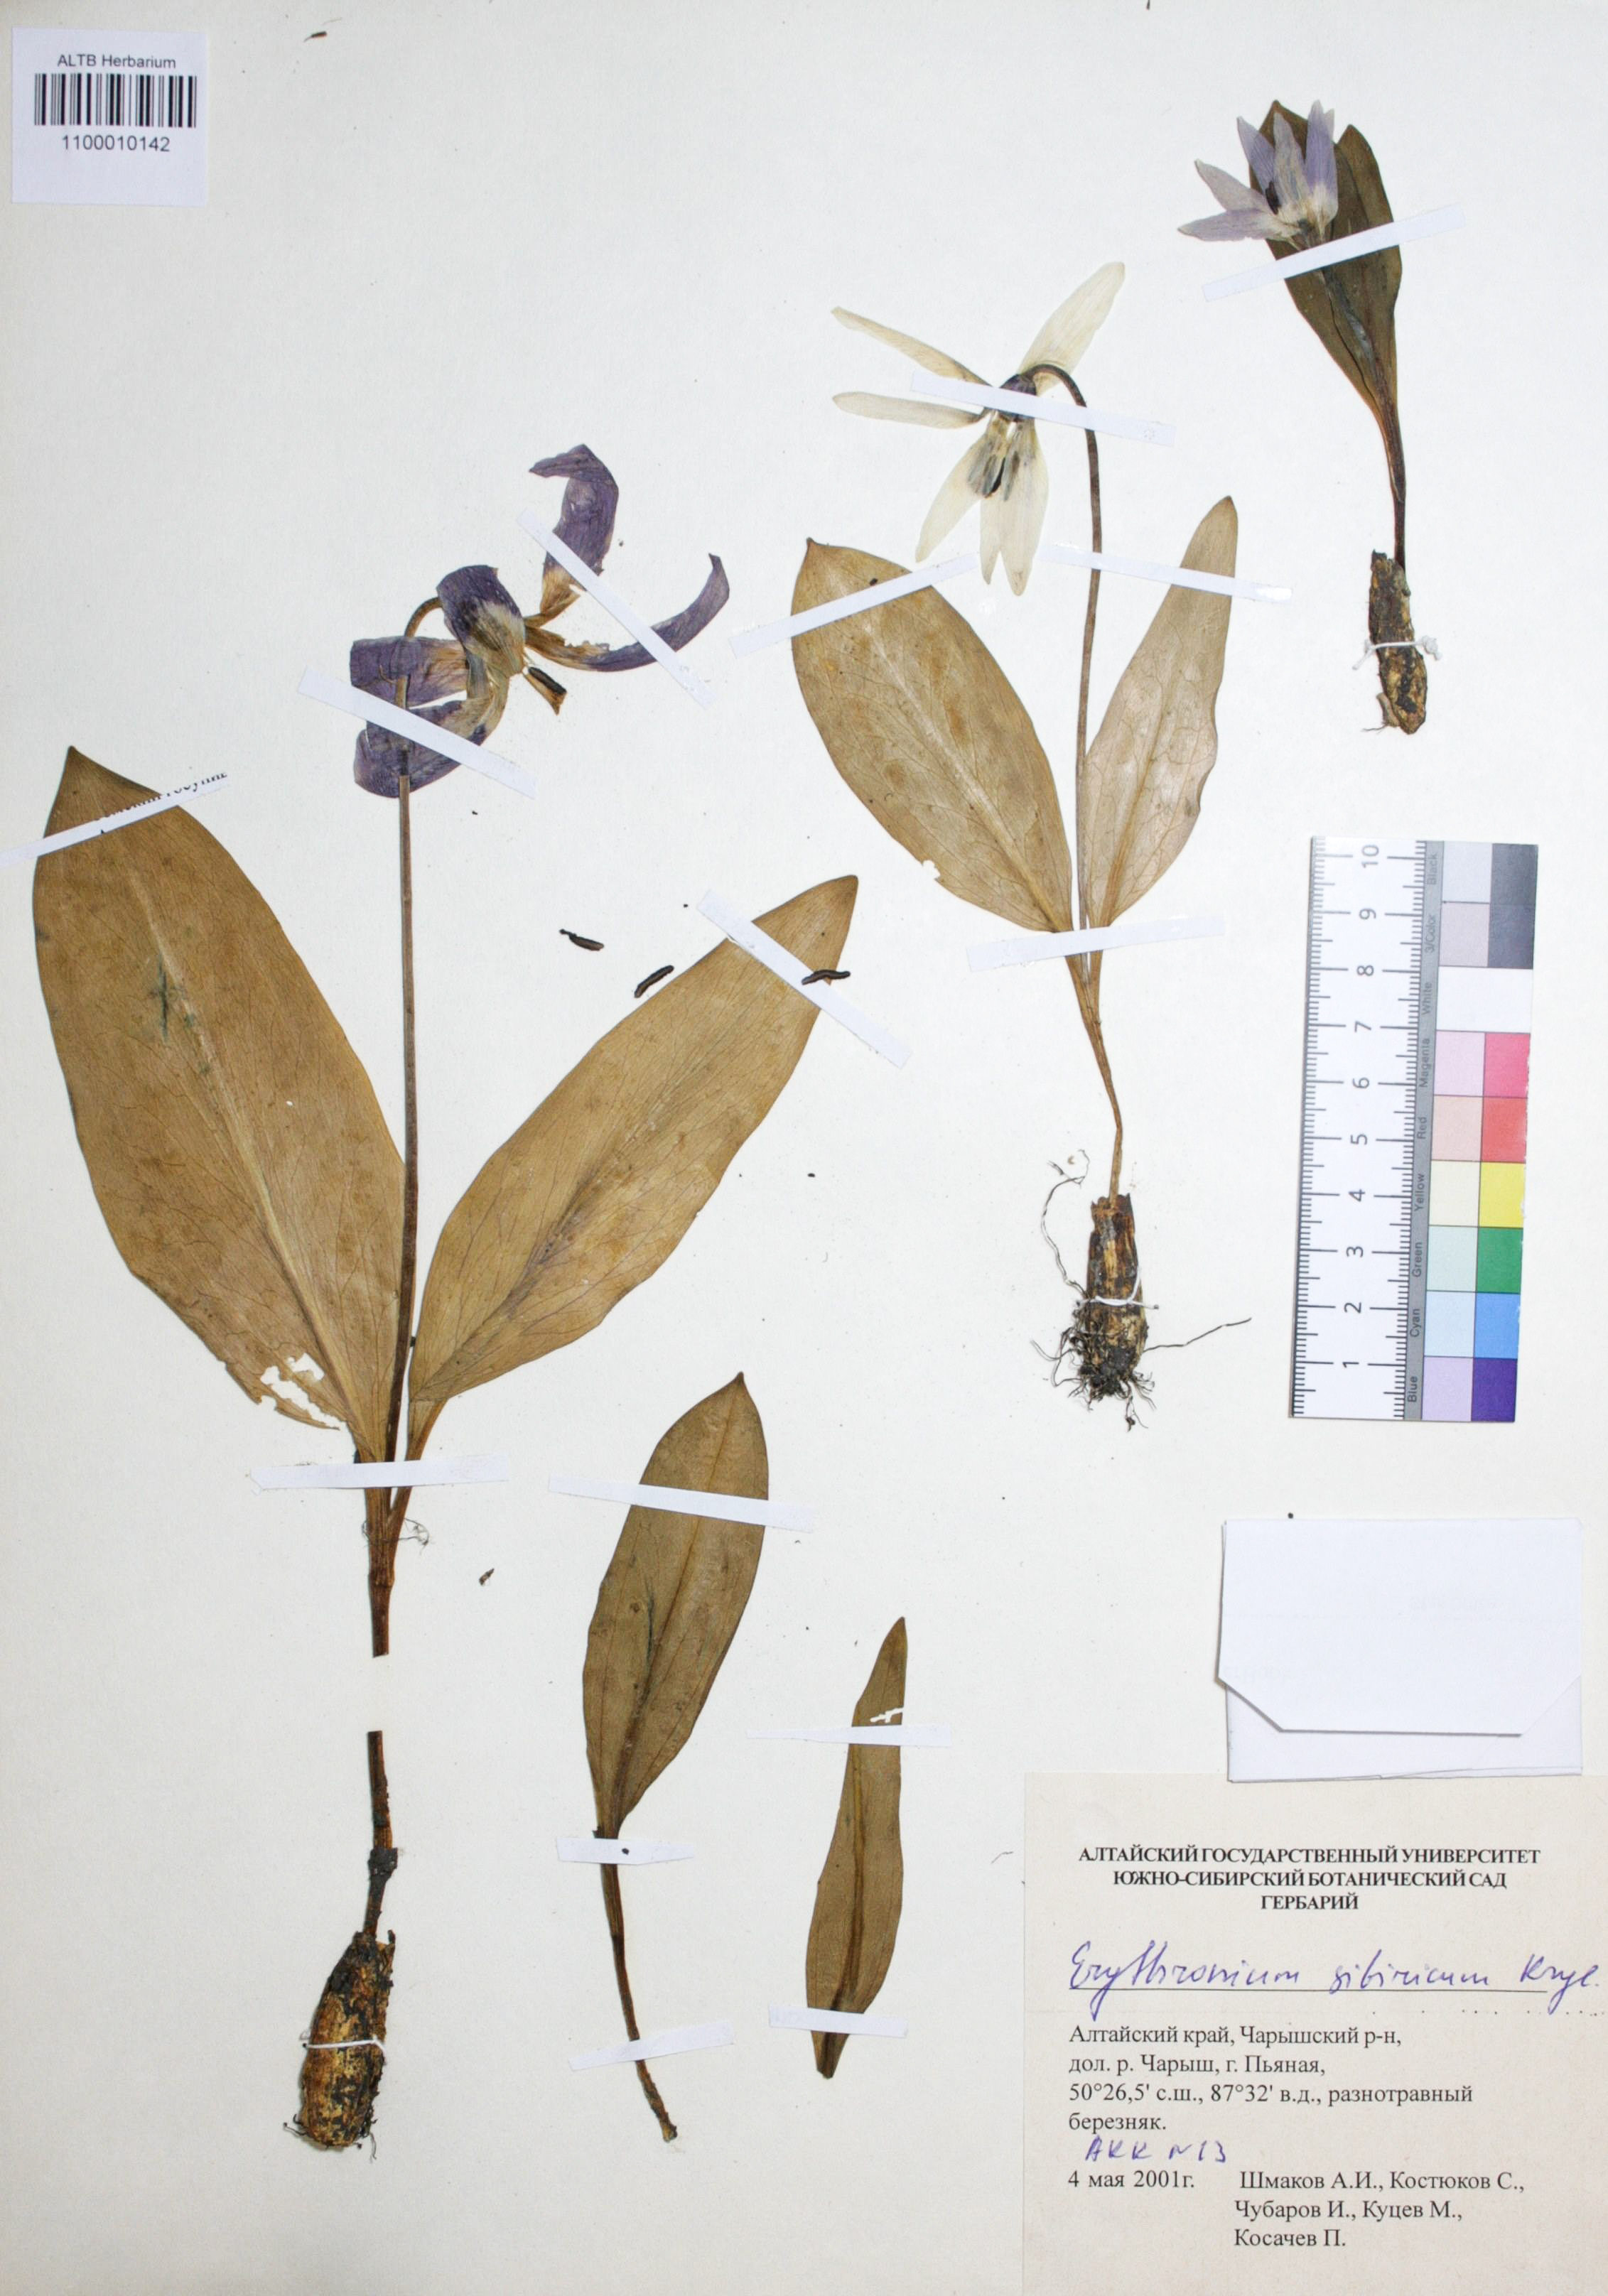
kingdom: Plantae
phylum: Tracheophyta
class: Liliopsida
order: Liliales
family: Liliaceae
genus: Erythronium
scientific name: Erythronium sibiricum
